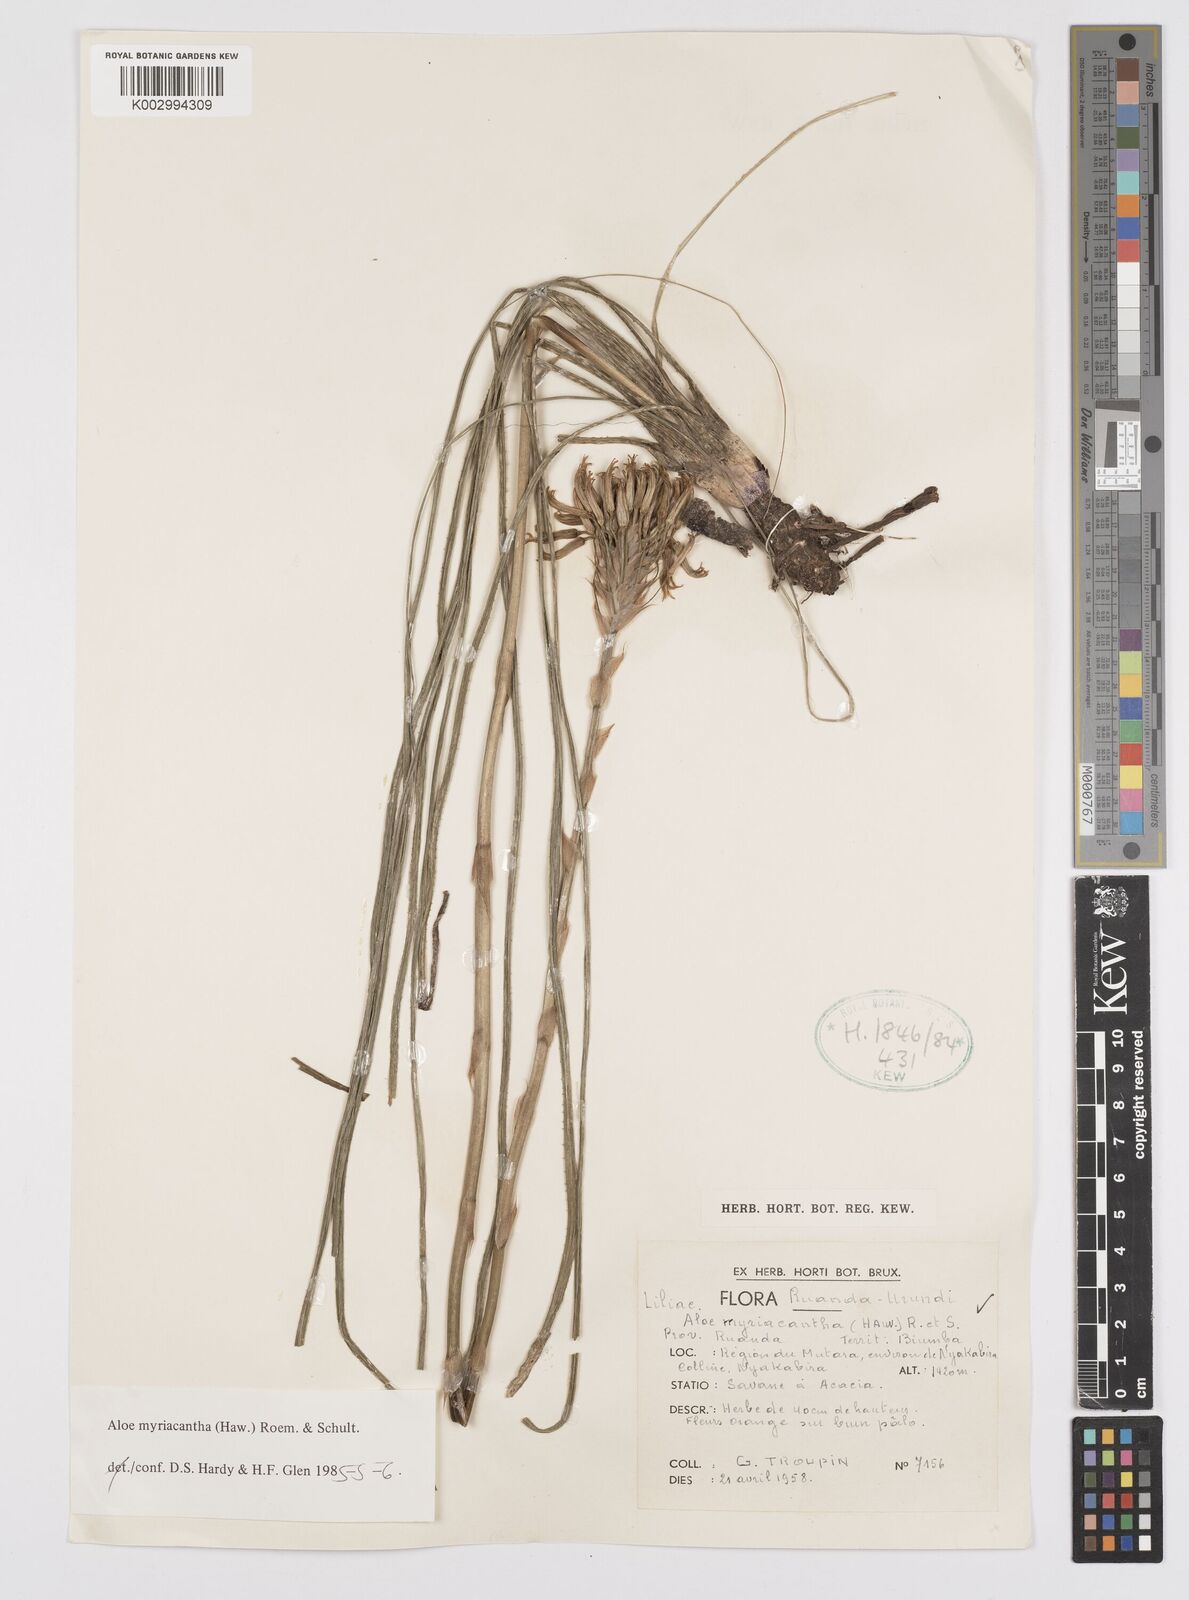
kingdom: Plantae
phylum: Tracheophyta
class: Liliopsida
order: Asparagales
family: Asphodelaceae
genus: Aloe
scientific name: Aloe myriacantha
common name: Grass aloe
